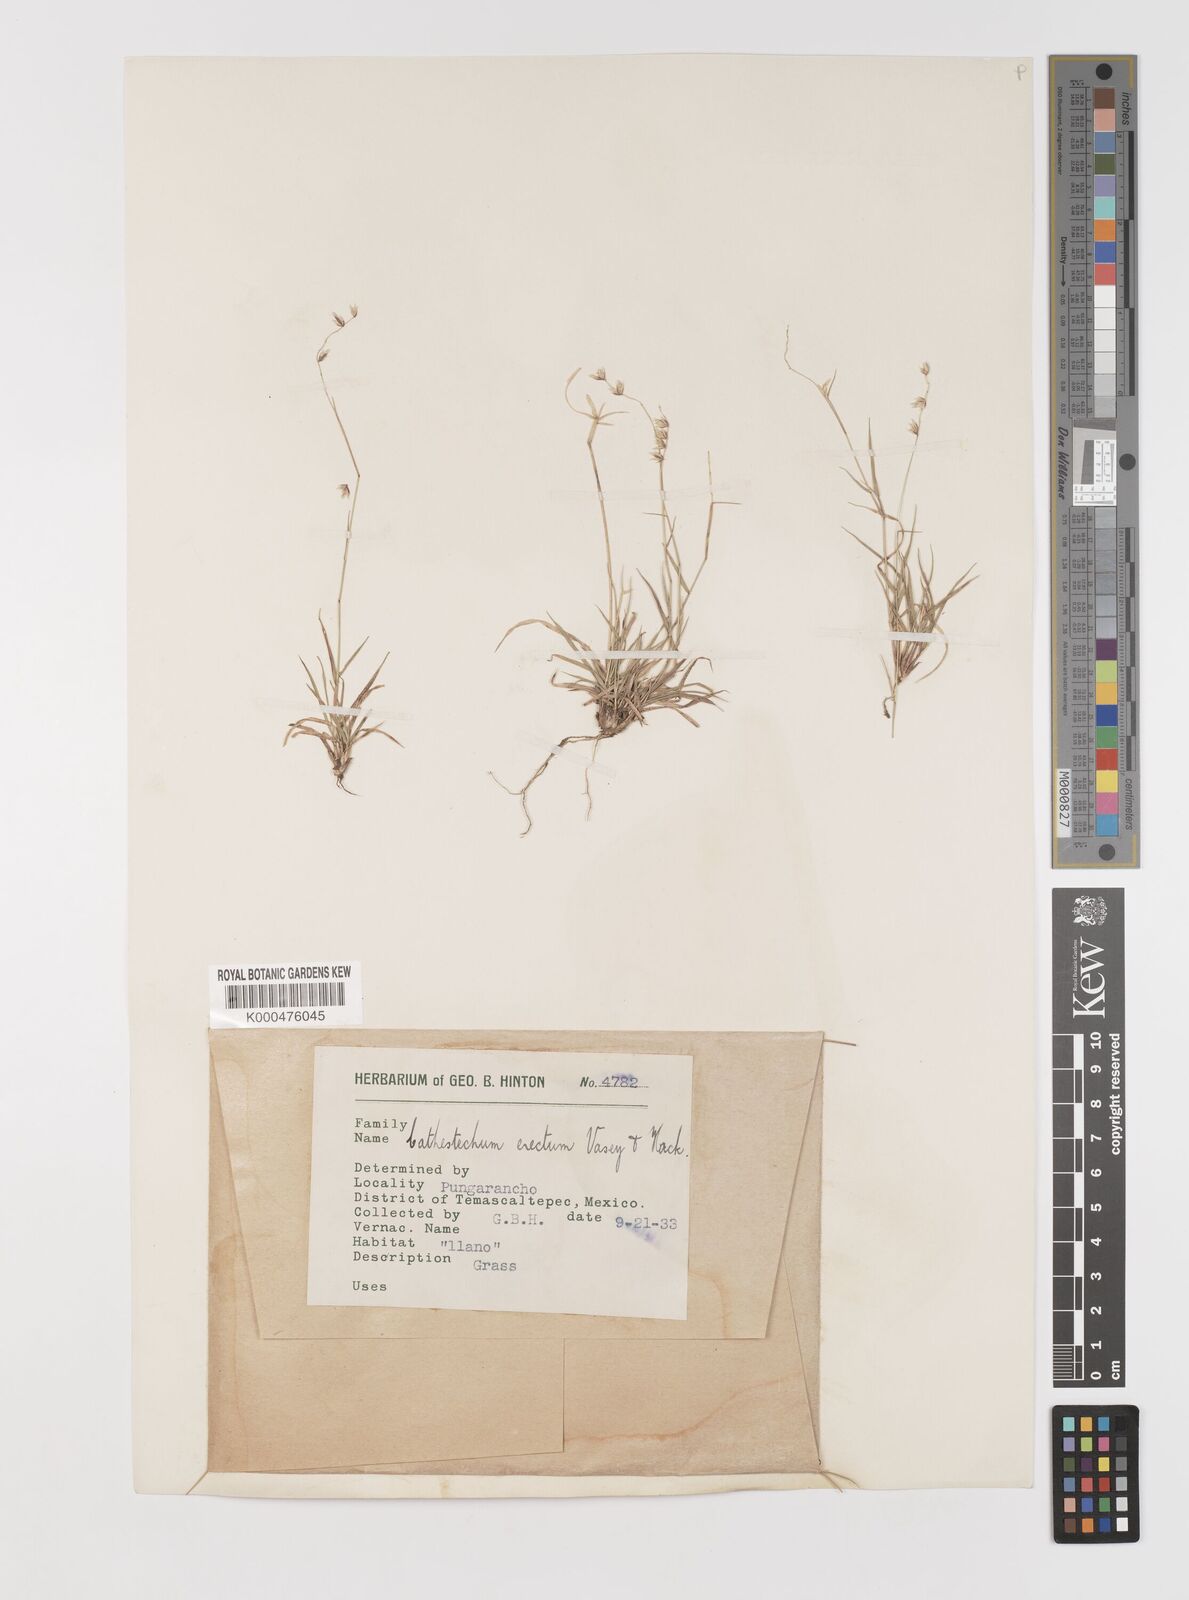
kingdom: Plantae
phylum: Tracheophyta
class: Liliopsida
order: Poales
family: Poaceae
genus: Bouteloua
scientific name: Bouteloua erecta
